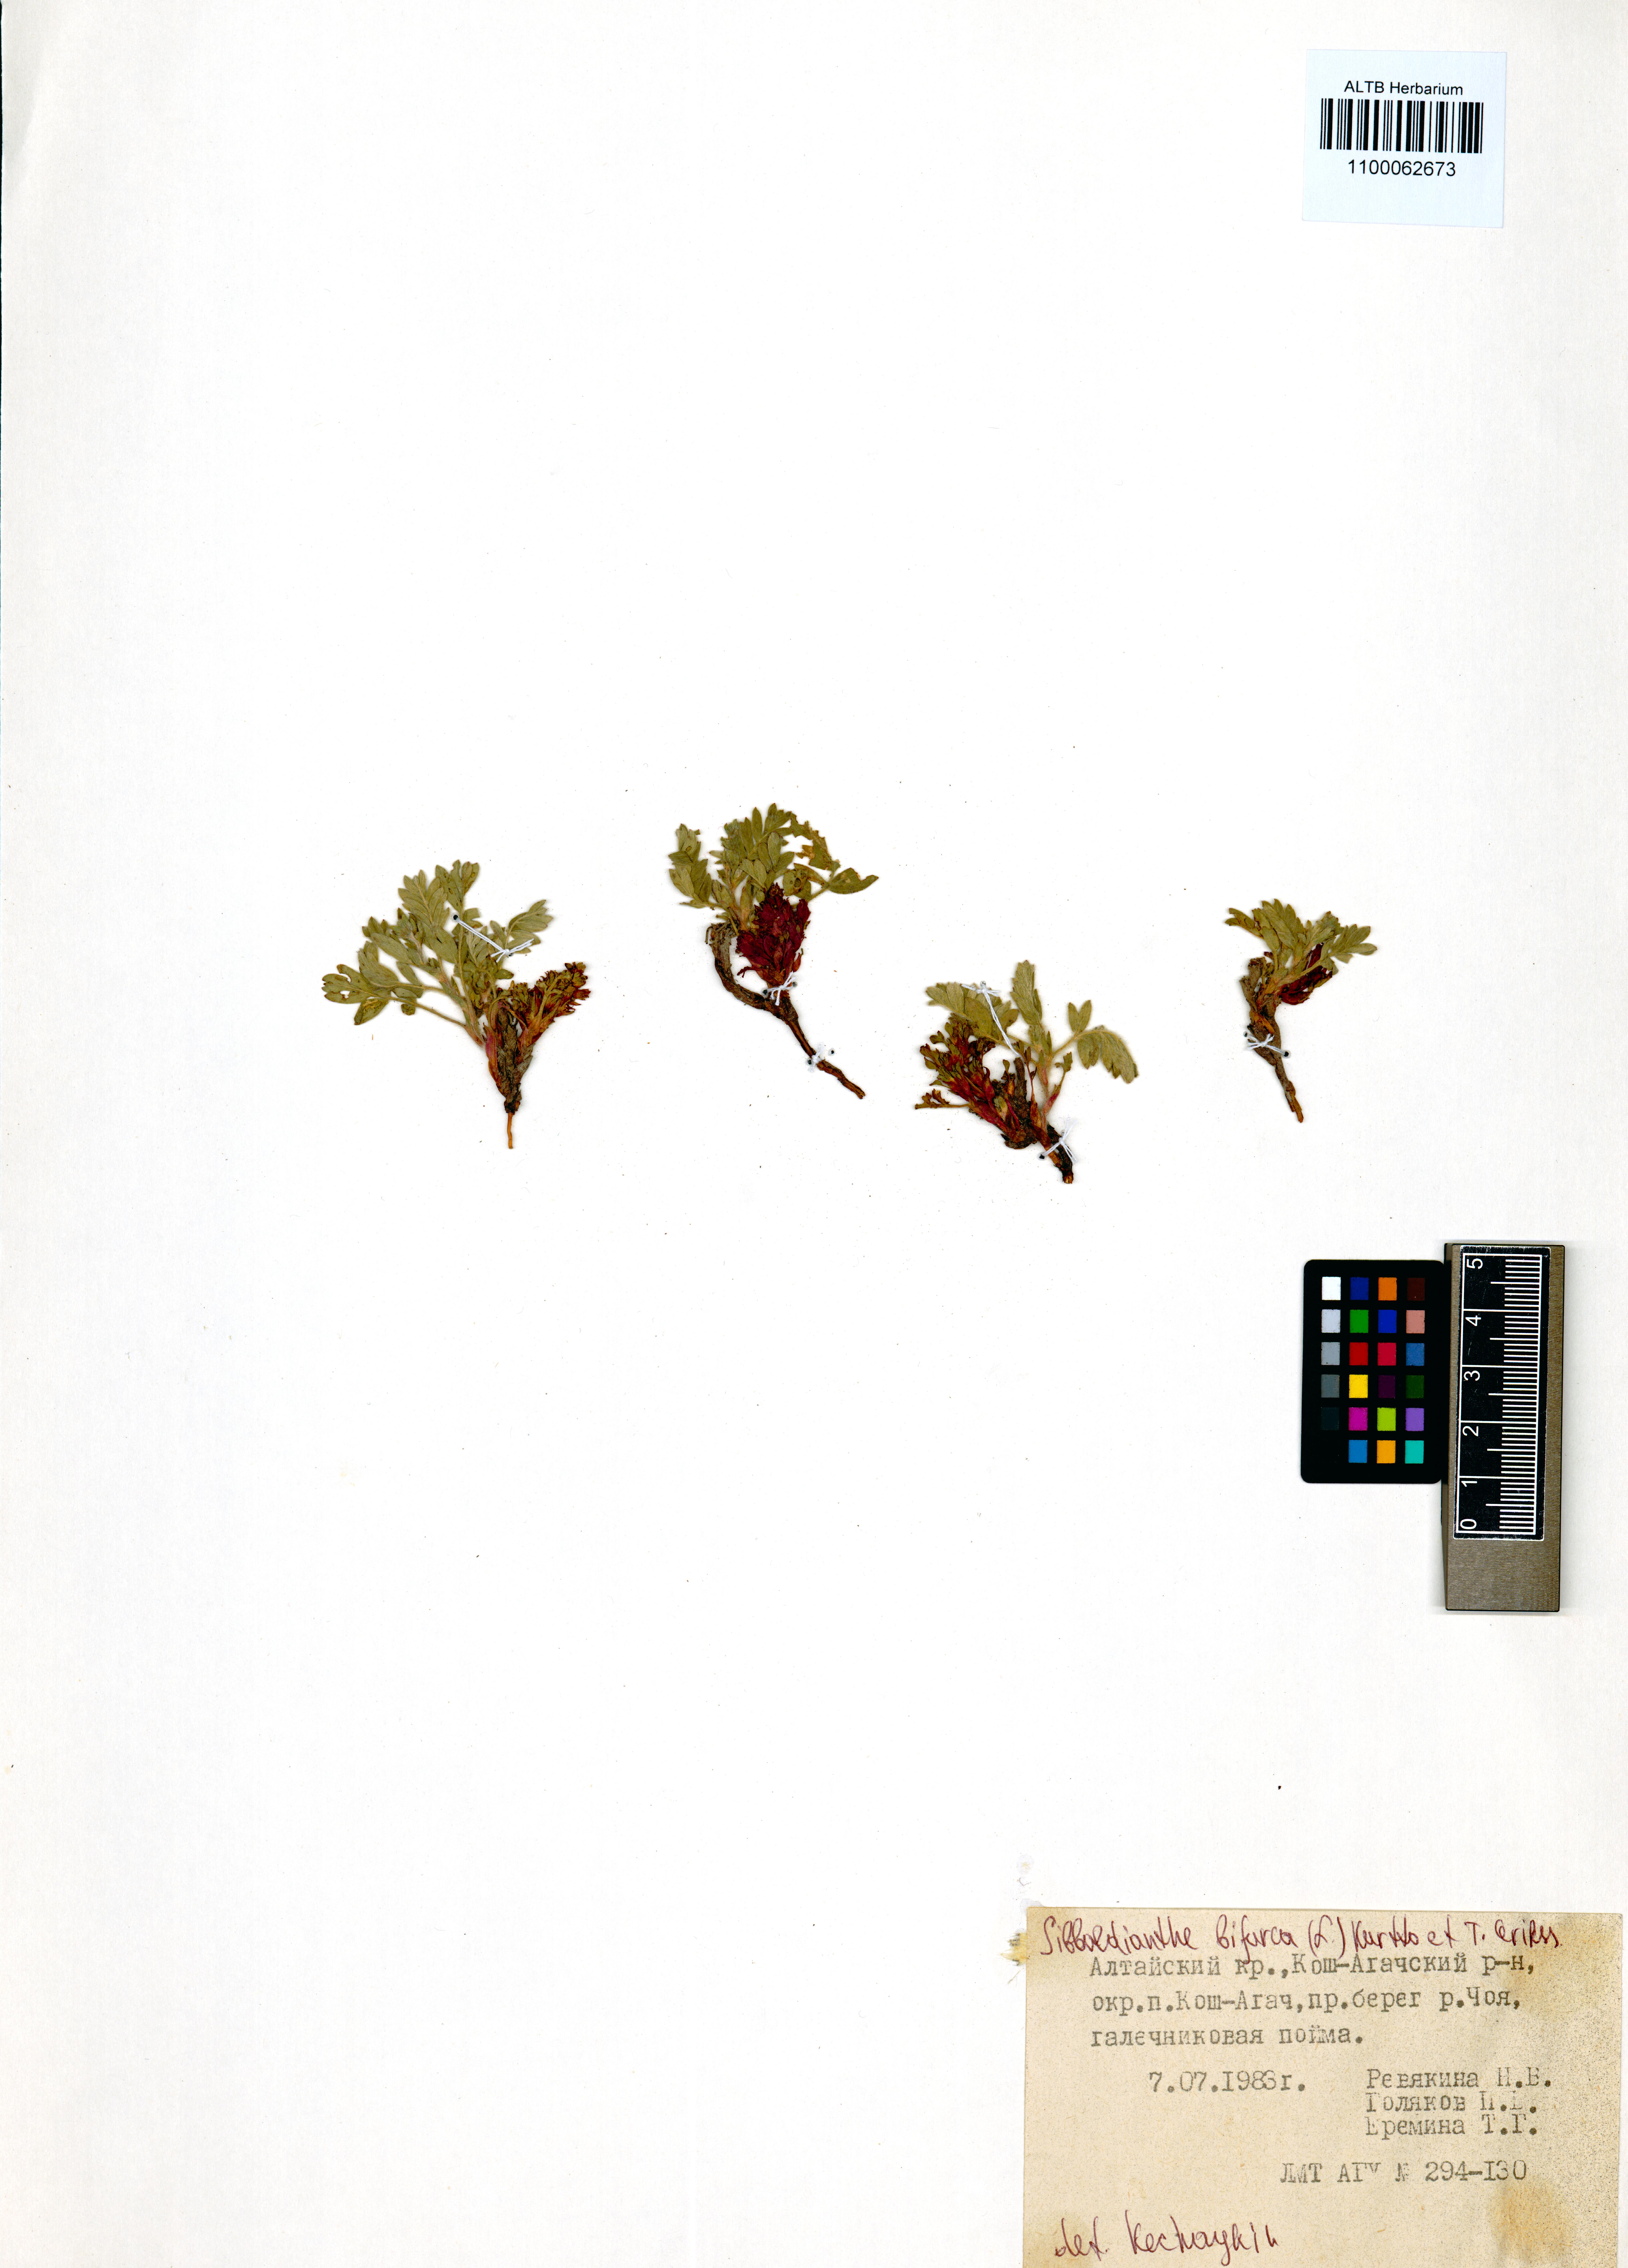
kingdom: Plantae
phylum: Tracheophyta
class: Magnoliopsida
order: Rosales
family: Rosaceae
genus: Sibbaldianthe
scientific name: Sibbaldianthe bifurca
